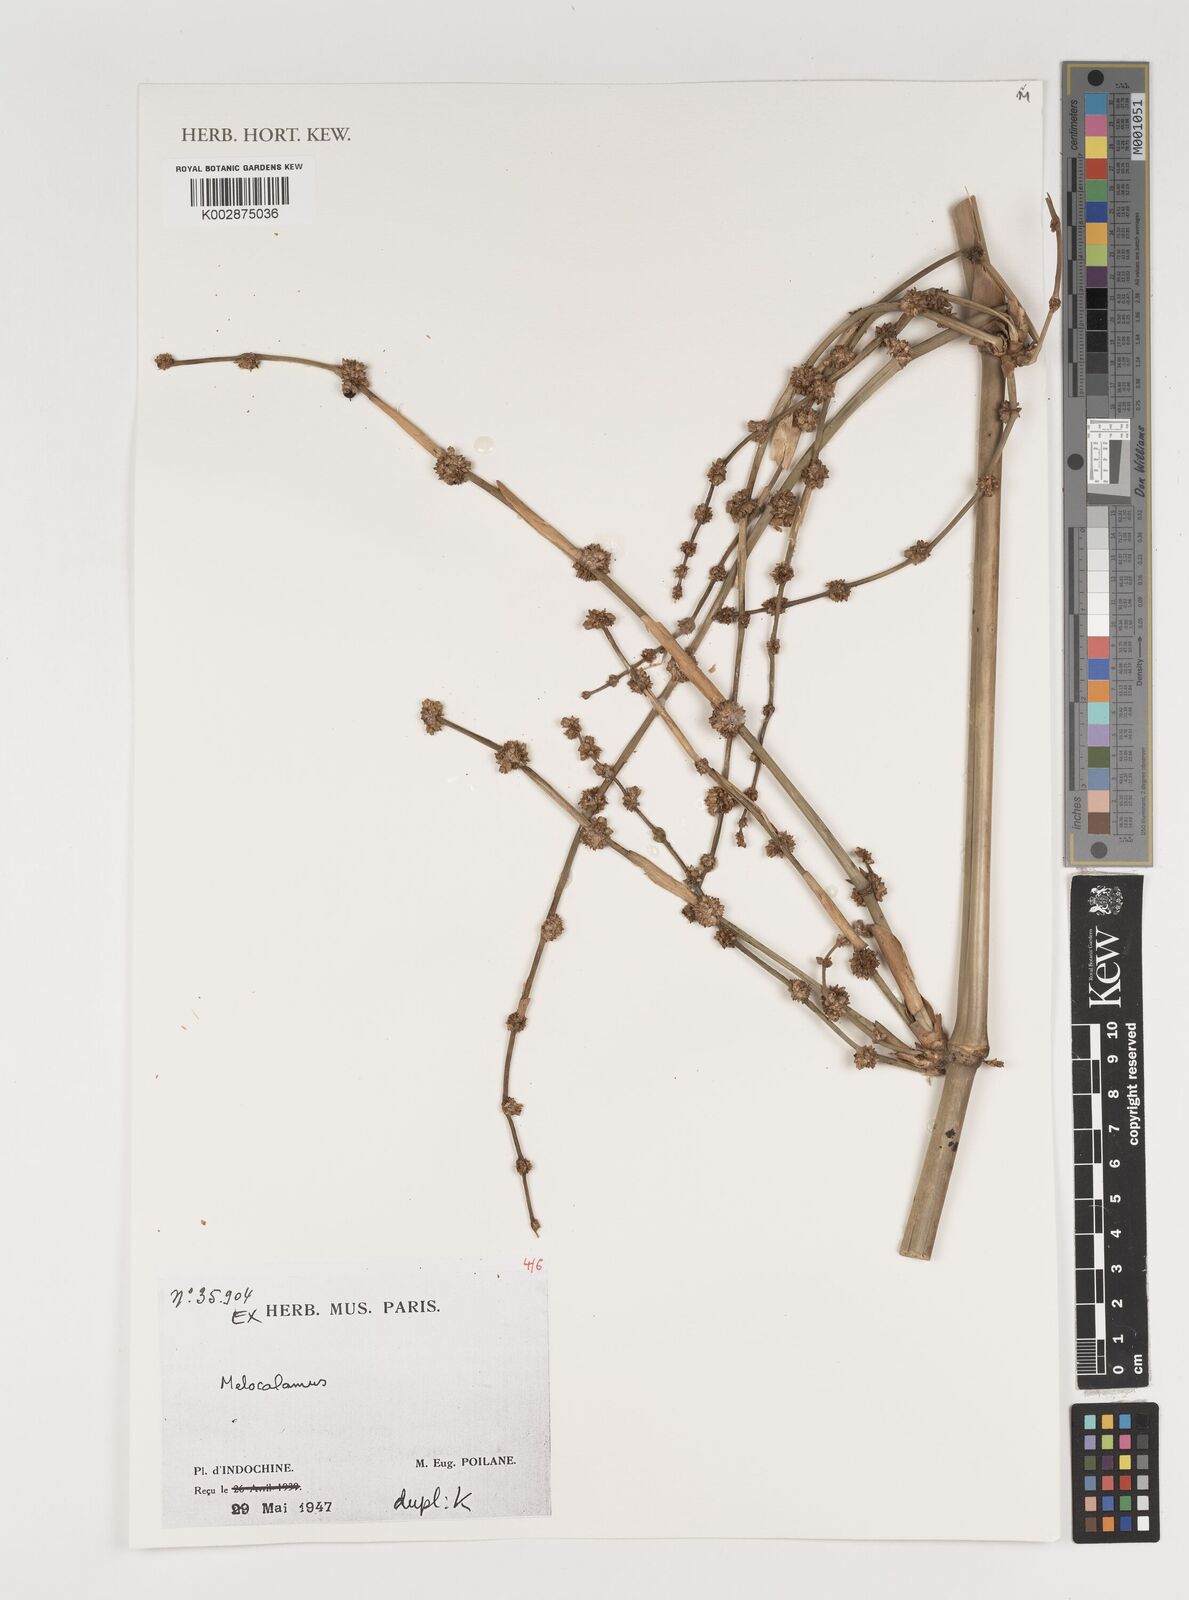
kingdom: Plantae
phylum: Tracheophyta
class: Liliopsida
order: Poales
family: Poaceae
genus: Melocalamus
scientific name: Melocalamus
